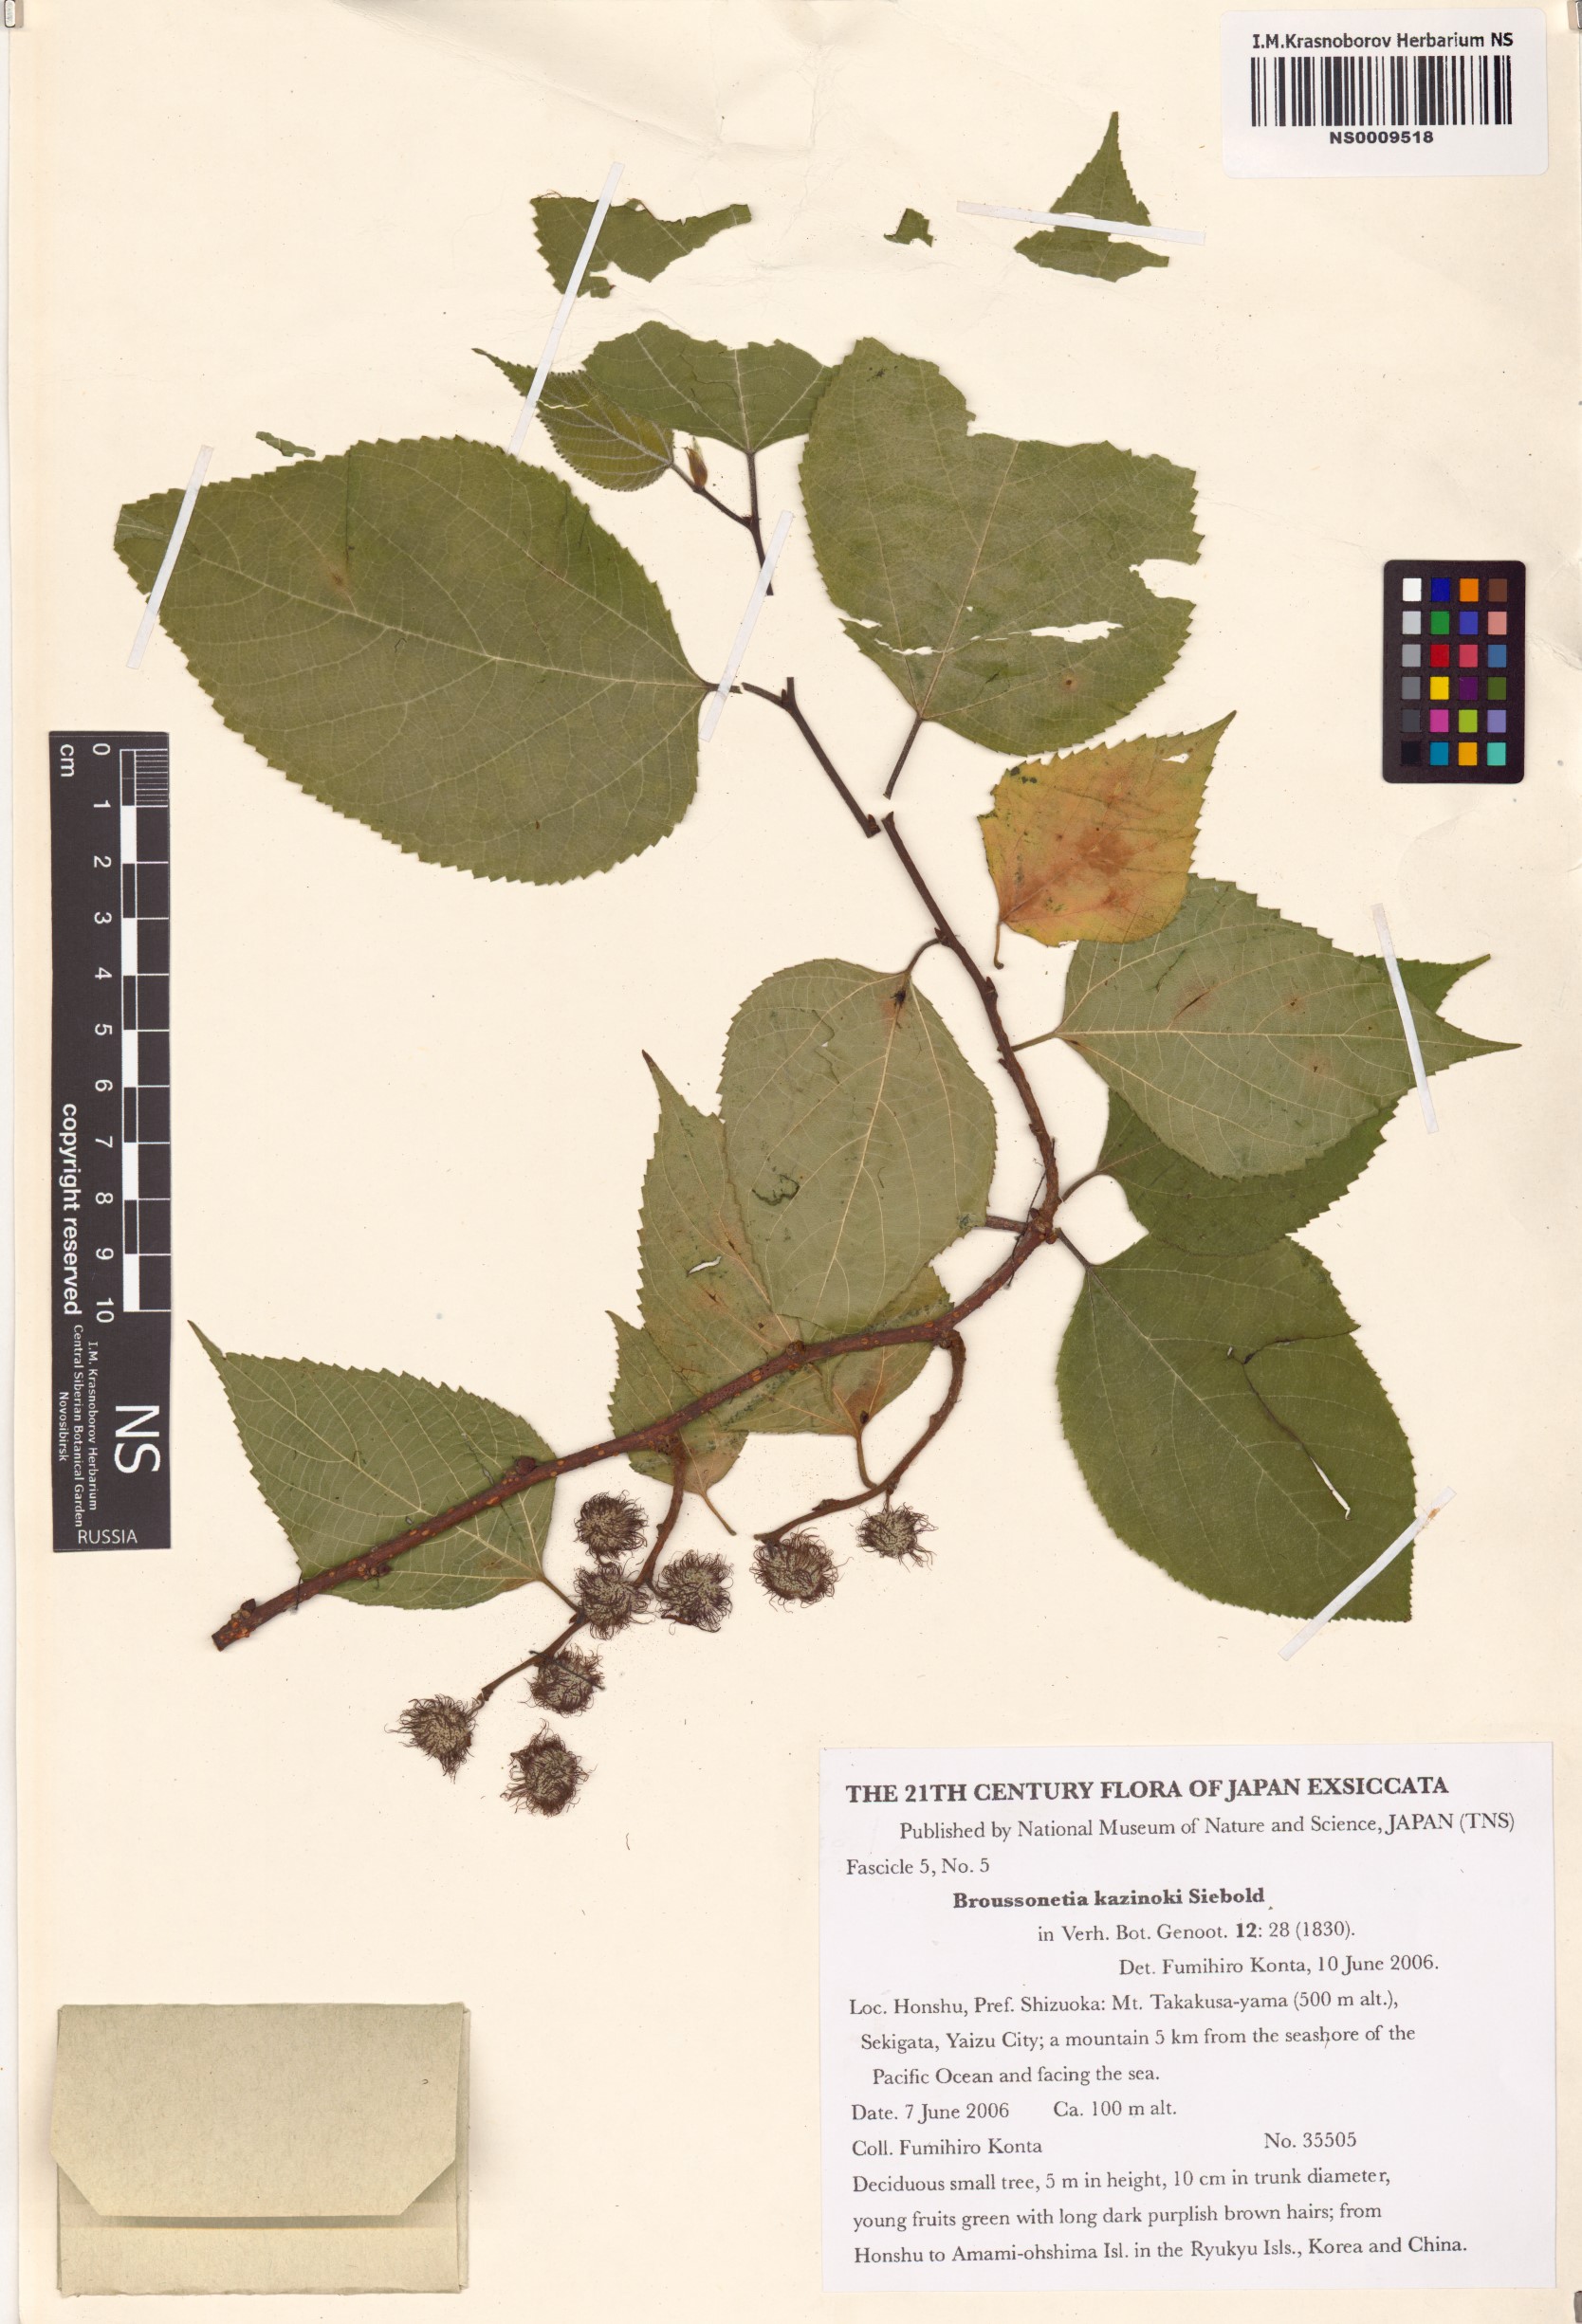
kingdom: Plantae
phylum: Tracheophyta
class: Magnoliopsida
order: Rosales
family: Moraceae
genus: Broussonetia
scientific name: Broussonetia kazinoki
